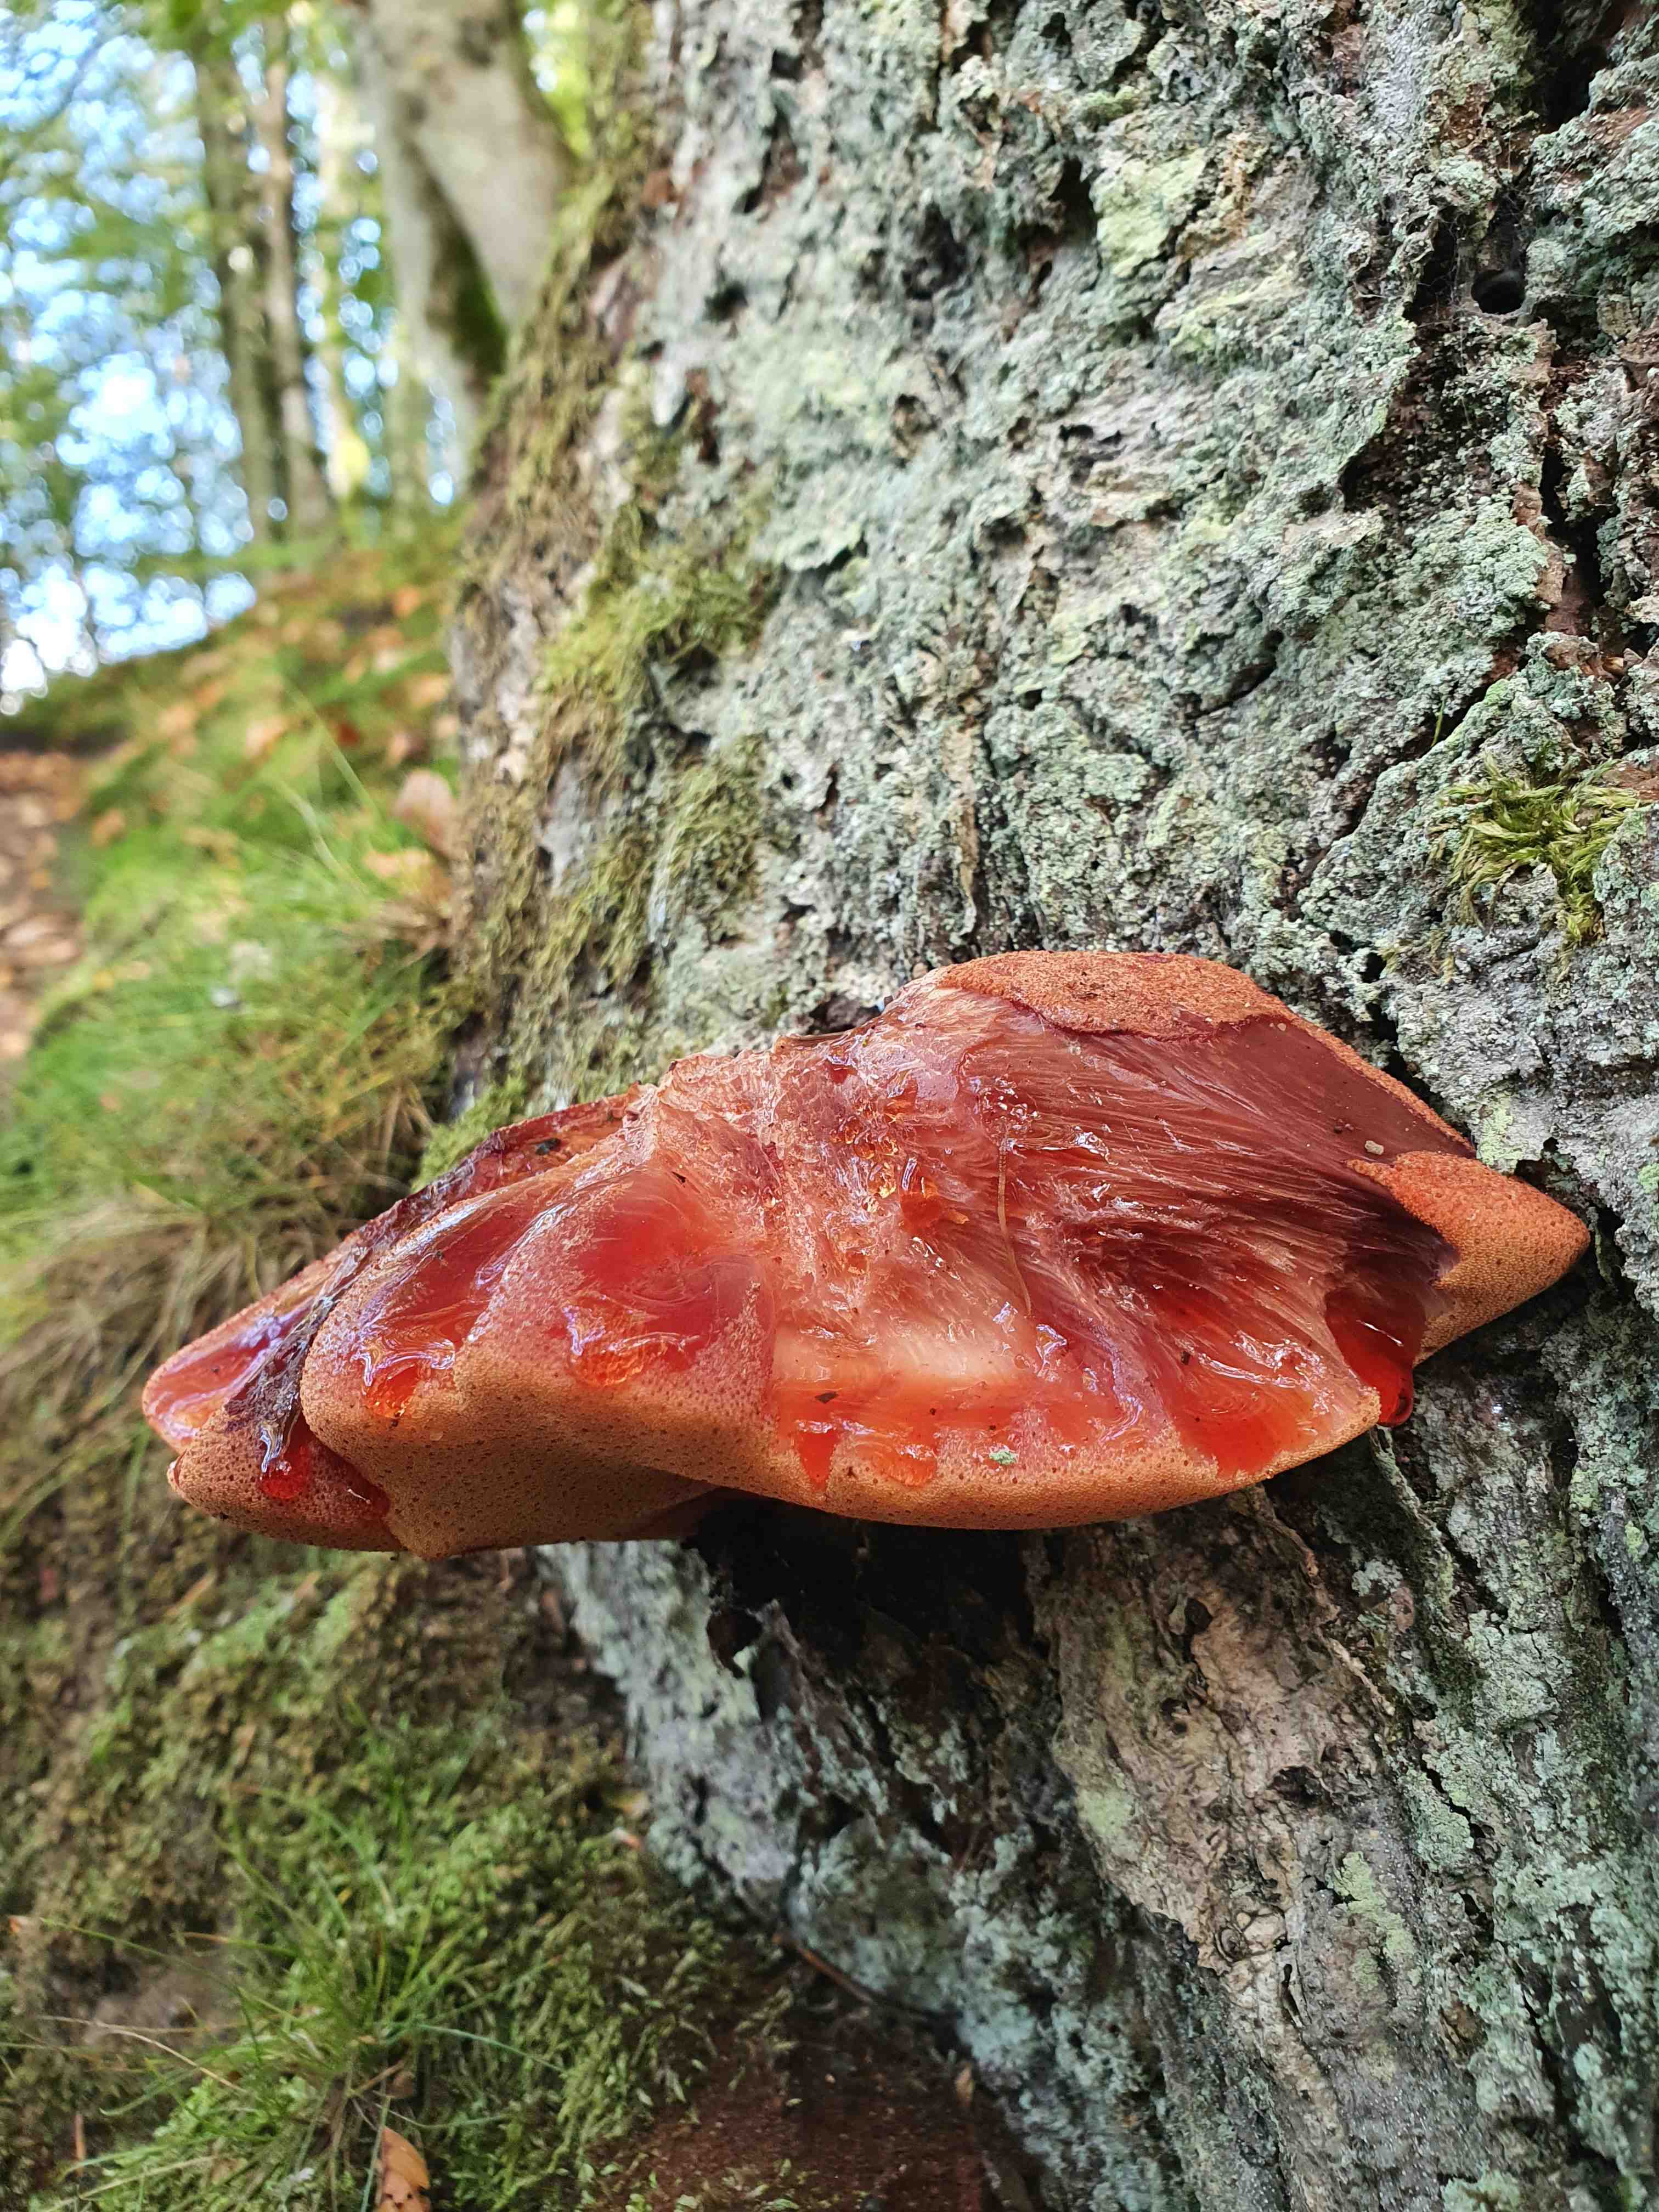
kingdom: Fungi
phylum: Basidiomycota
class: Agaricomycetes
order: Agaricales
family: Fistulinaceae
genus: Fistulina
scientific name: Fistulina hepatica
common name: oksetunge
